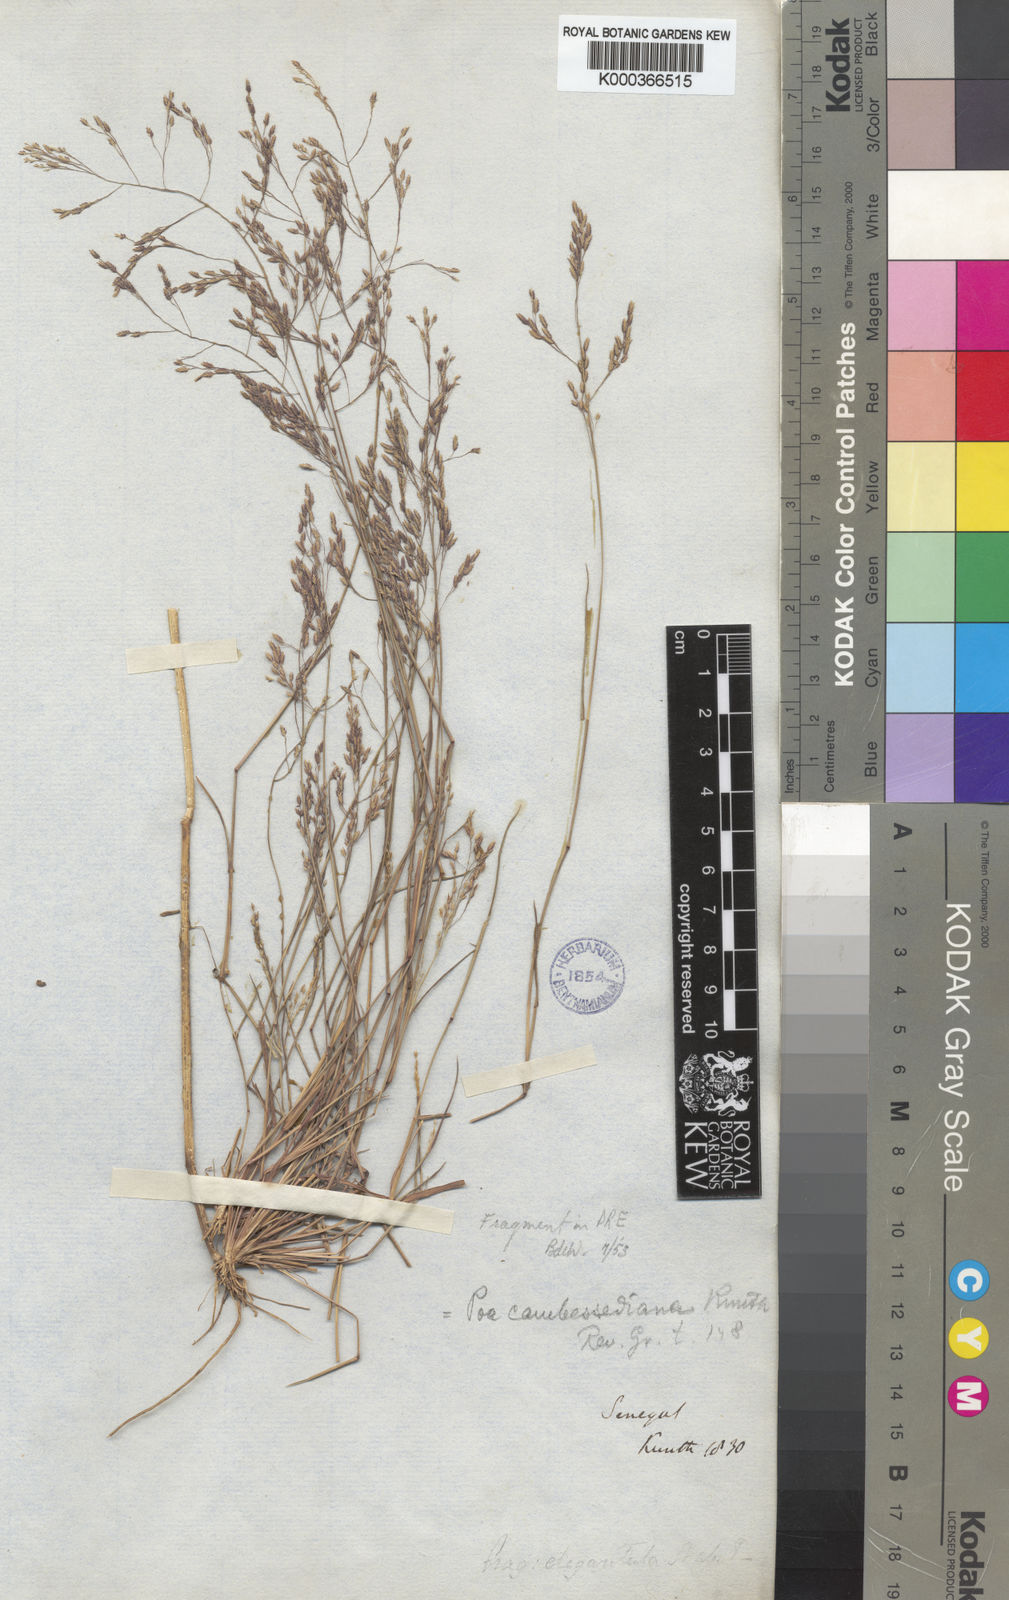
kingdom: Plantae
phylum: Tracheophyta
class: Liliopsida
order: Poales
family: Poaceae
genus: Eragrostis
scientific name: Eragrostis gangetica
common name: Slimflower lovegrass
